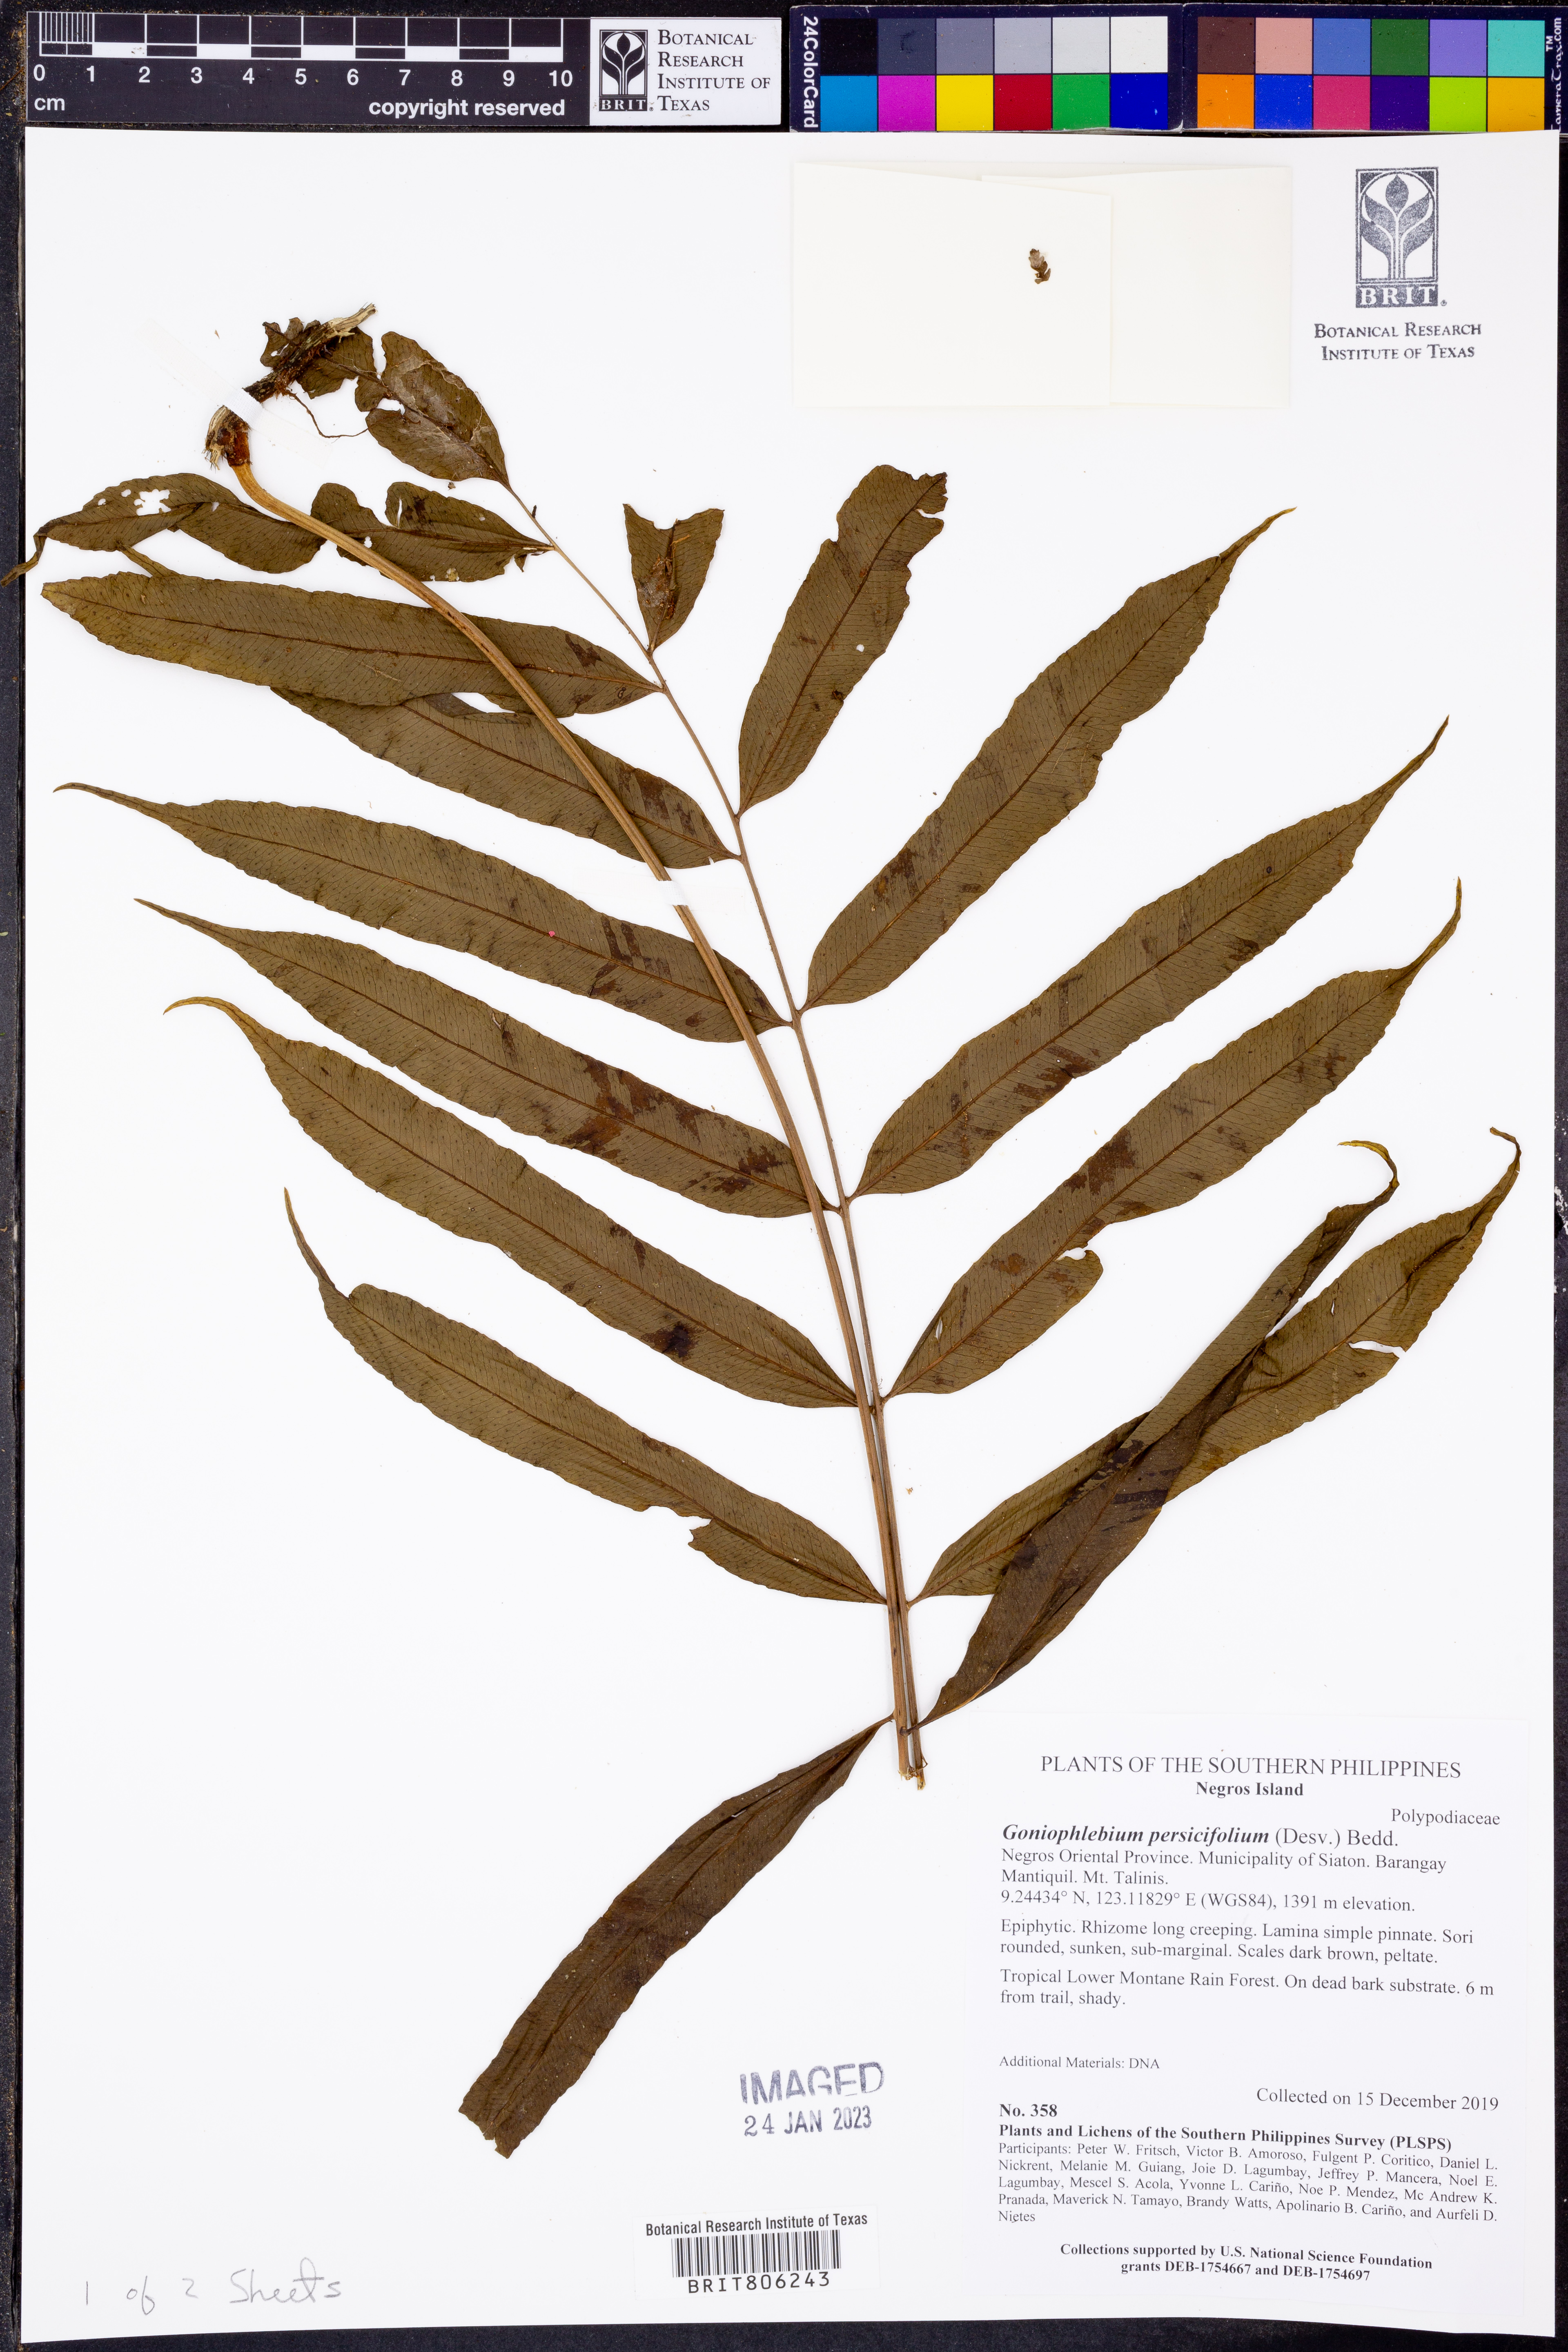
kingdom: Plantae
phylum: Tracheophyta
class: Polypodiopsida
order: Polypodiales
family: Polypodiaceae
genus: Goniophlebium
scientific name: Goniophlebium persicifolium
